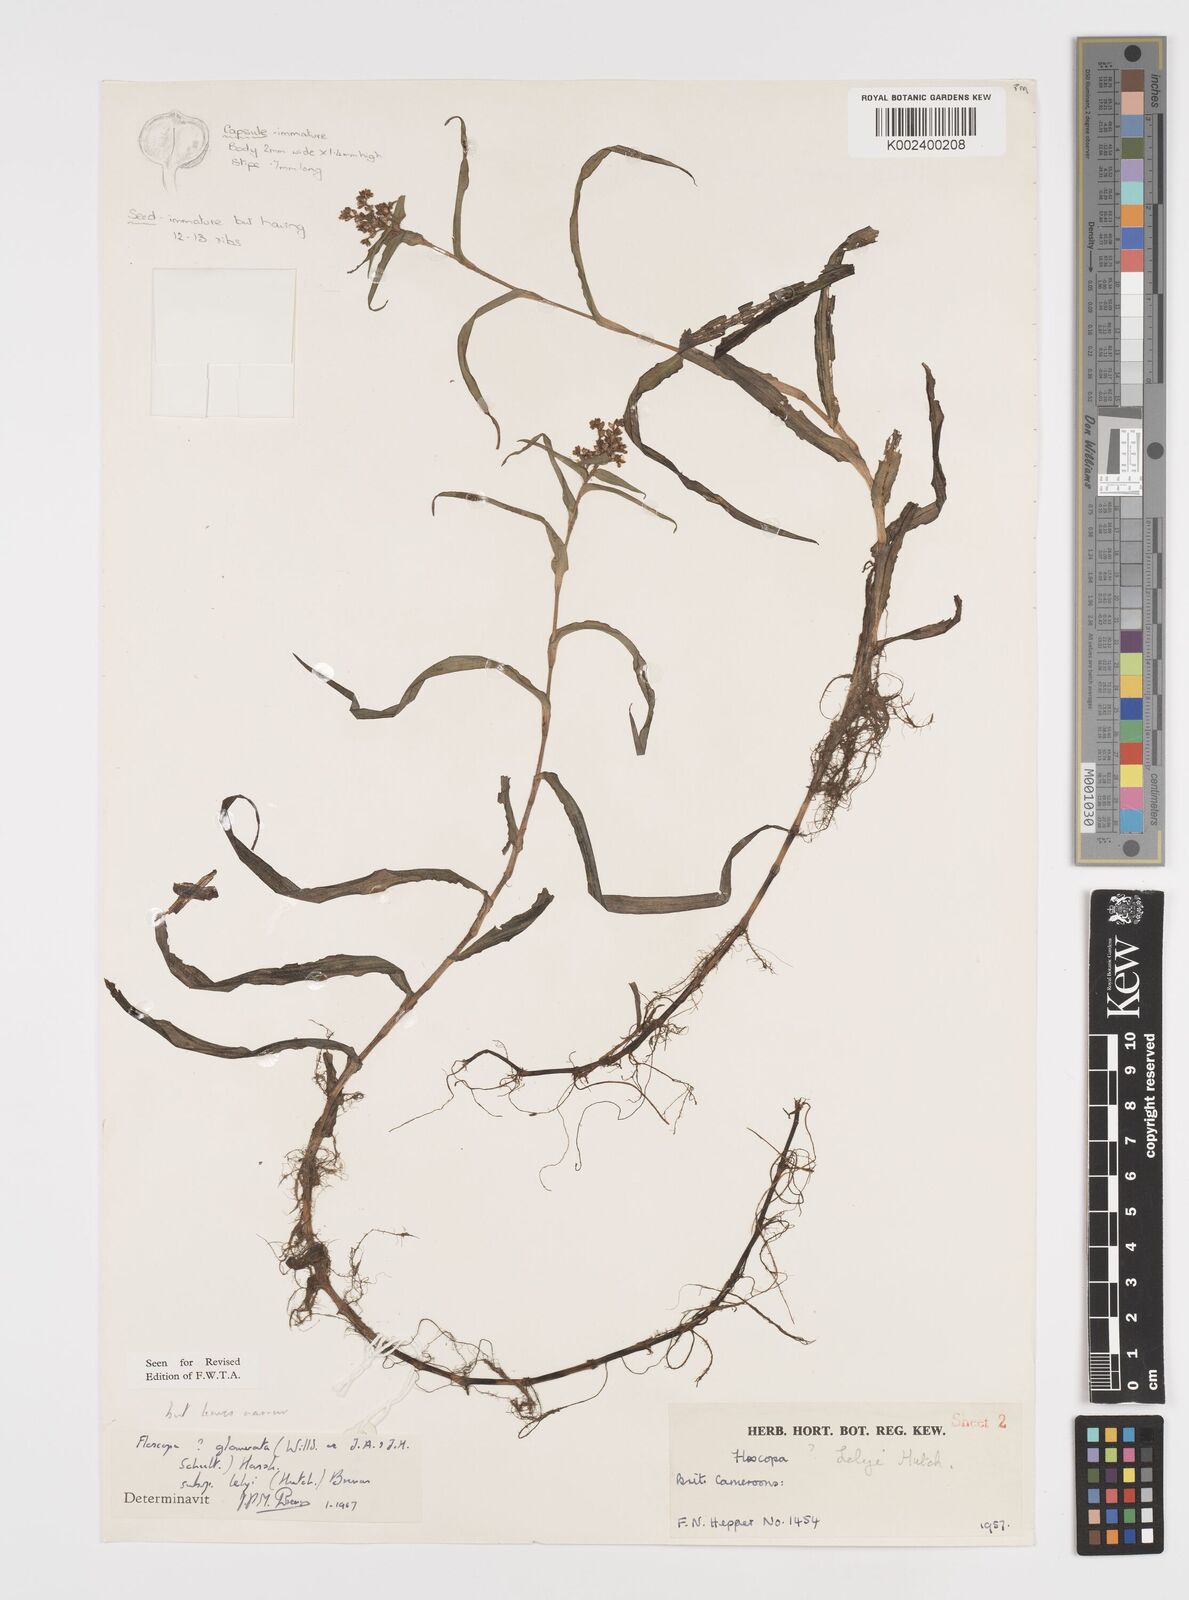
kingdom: Plantae
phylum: Tracheophyta
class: Liliopsida
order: Commelinales
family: Commelinaceae
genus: Floscopa
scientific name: Floscopa glomerata
